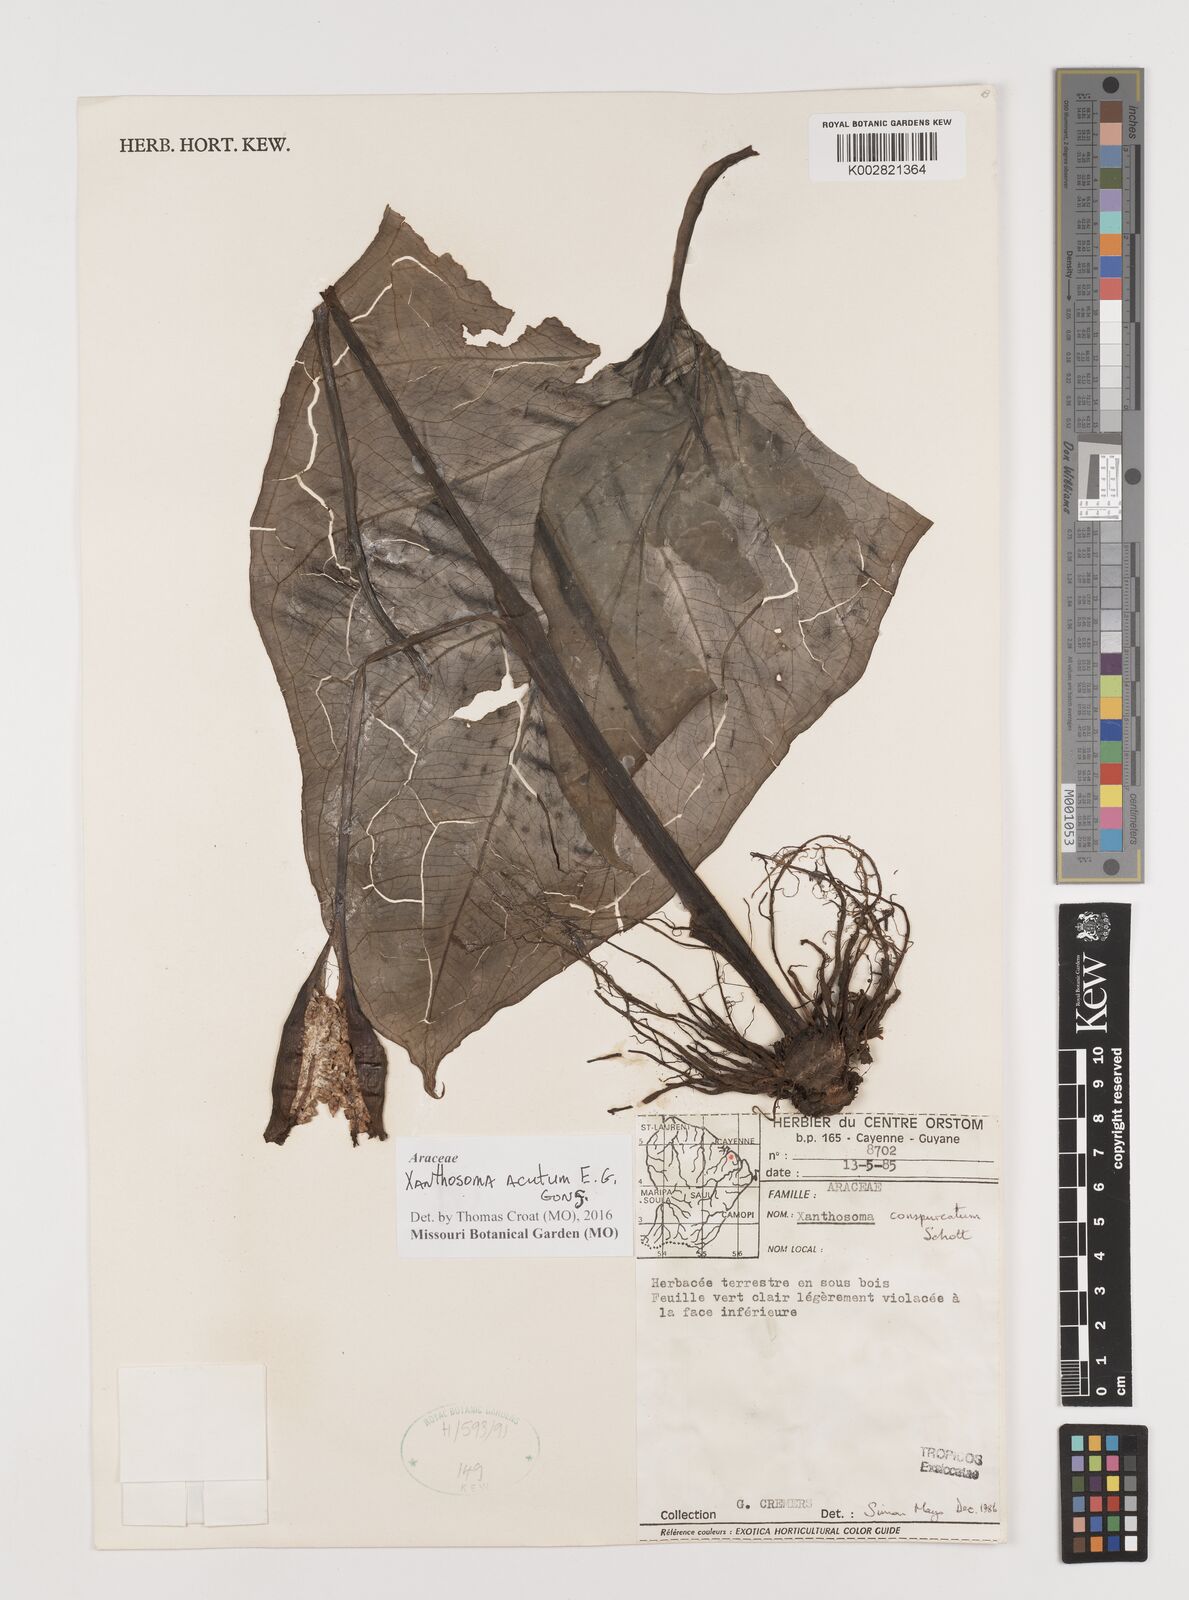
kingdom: Plantae
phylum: Tracheophyta
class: Liliopsida
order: Alismatales
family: Araceae
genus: Xanthosoma
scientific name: Xanthosoma acutum
